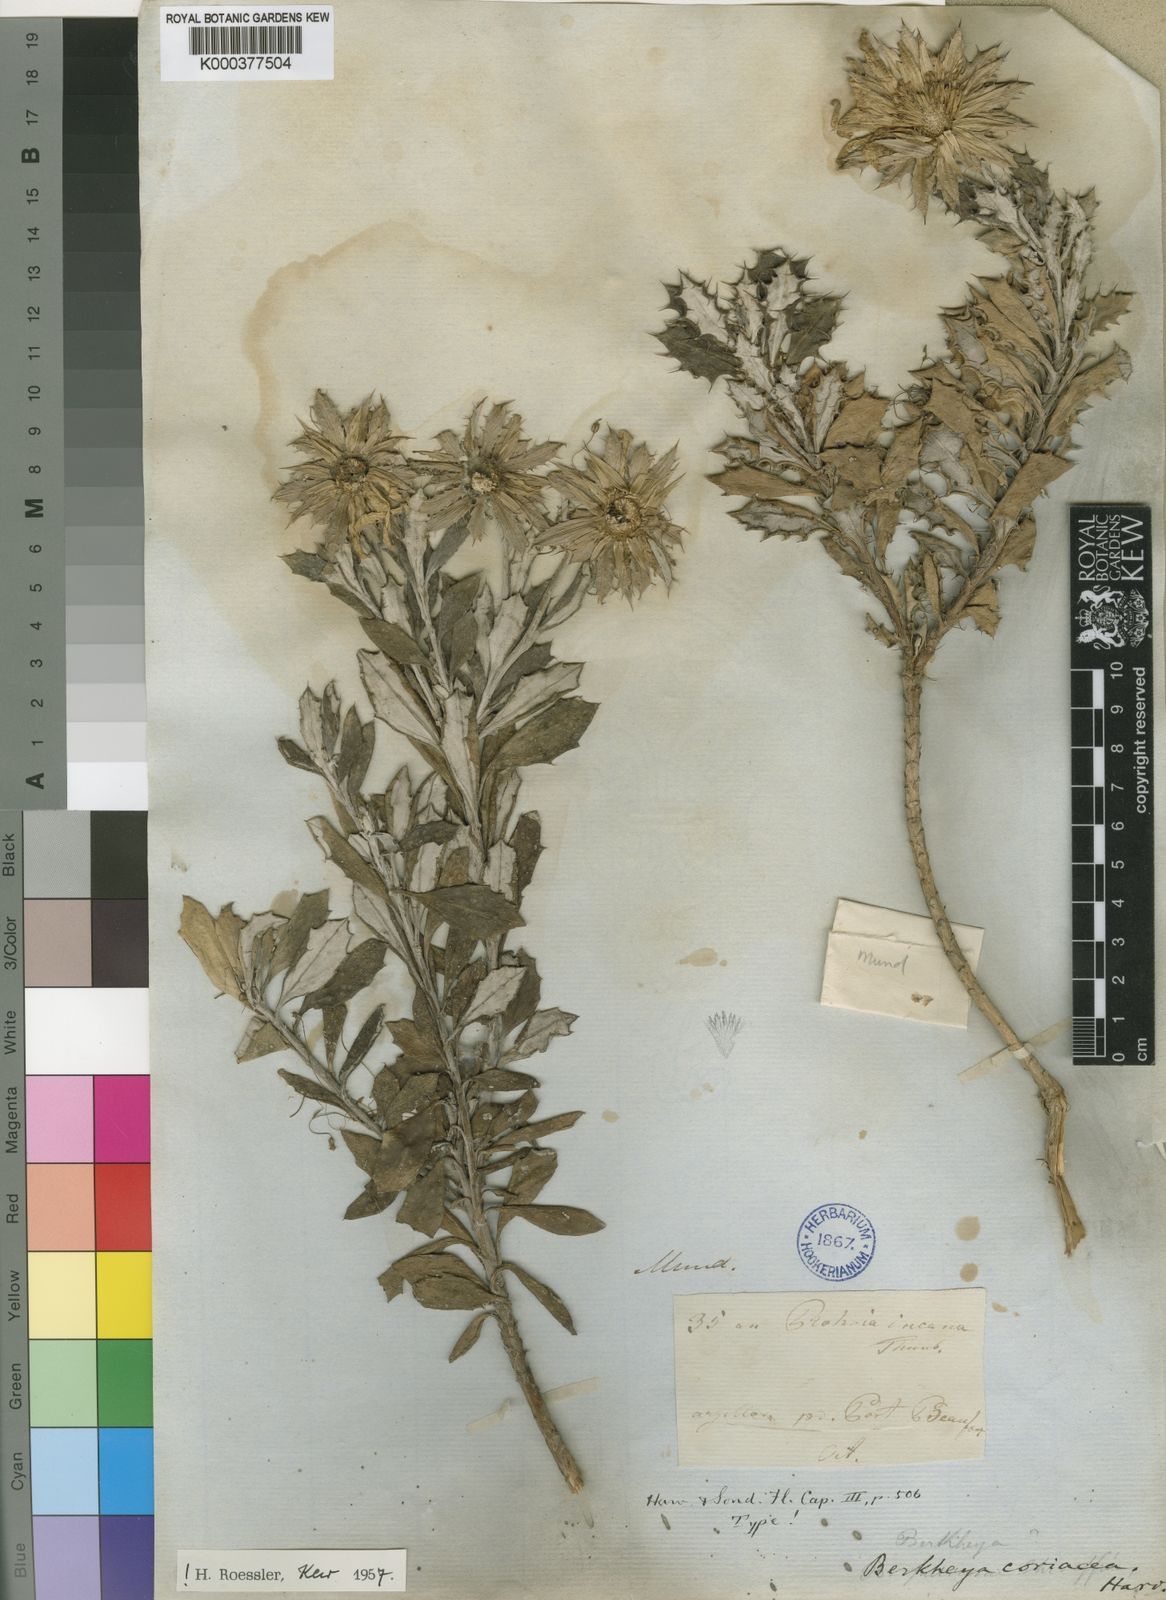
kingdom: Plantae
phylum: Tracheophyta
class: Magnoliopsida
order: Asterales
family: Asteraceae
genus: Berkheya
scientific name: Berkheya coriacea
